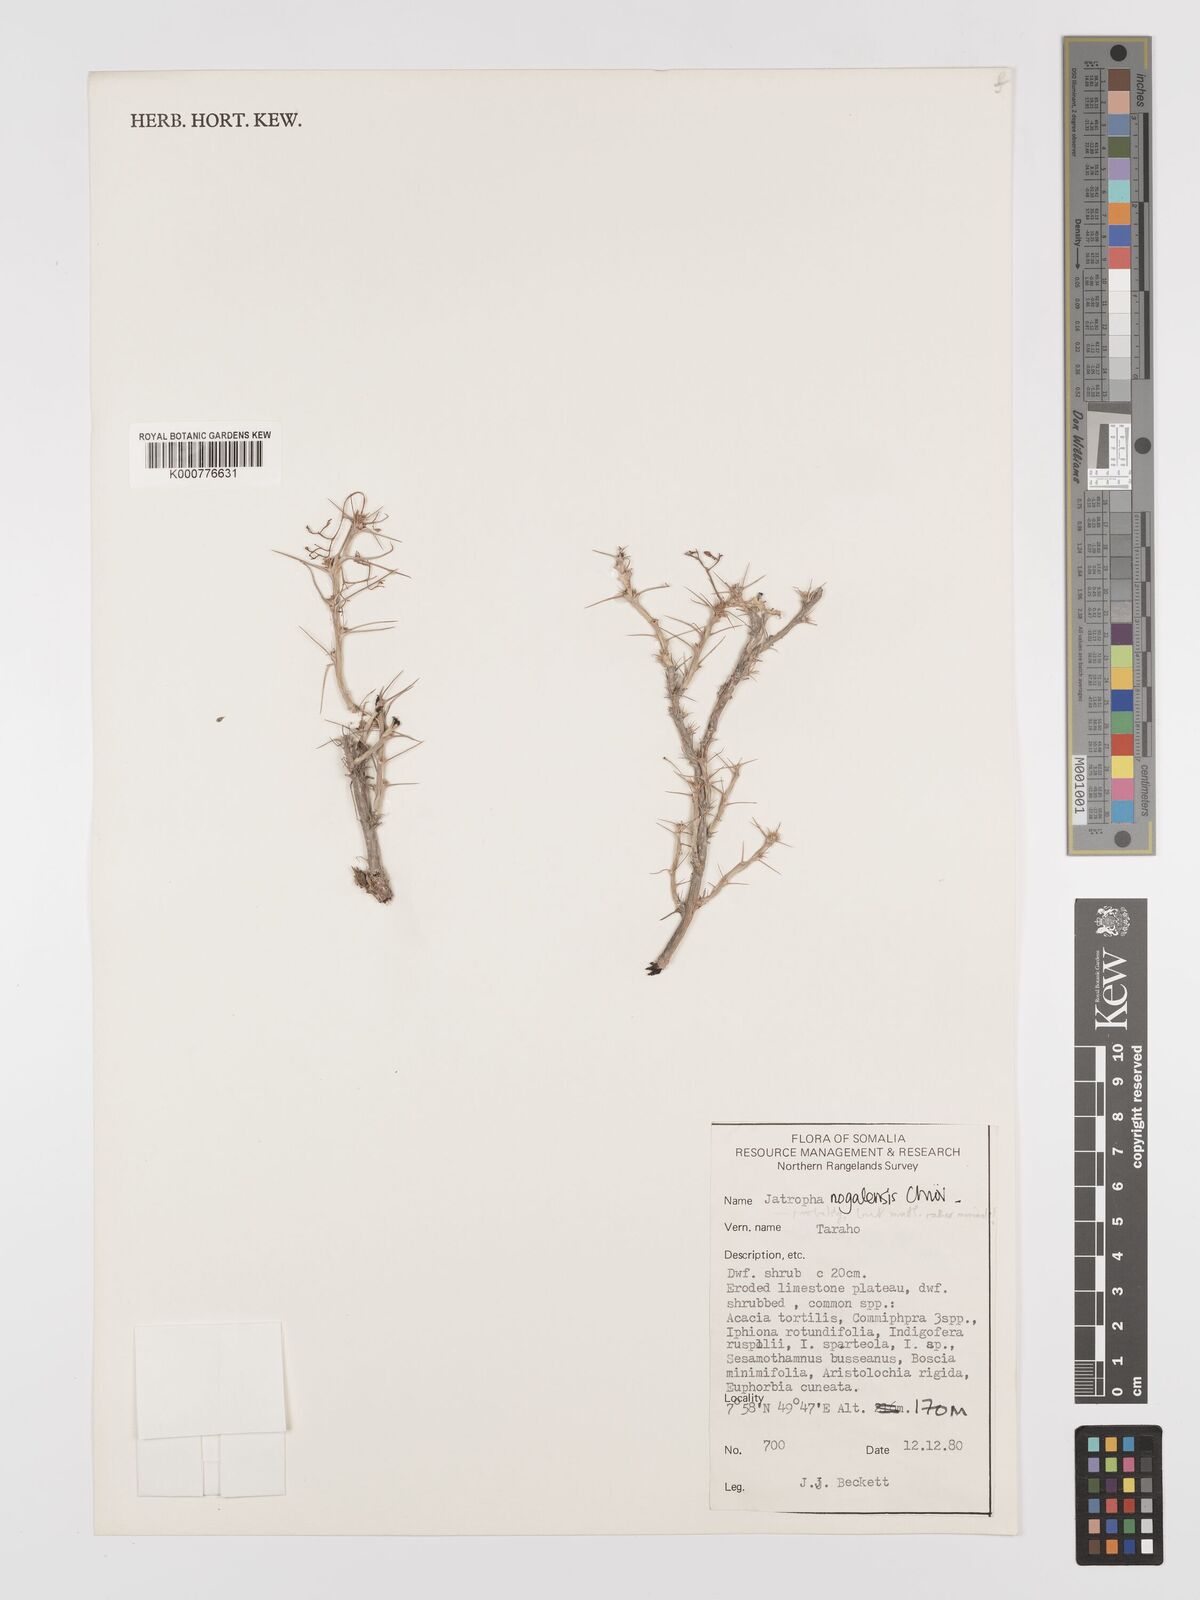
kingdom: Plantae
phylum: Tracheophyta
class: Magnoliopsida
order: Malpighiales
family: Euphorbiaceae
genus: Jatropha
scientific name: Jatropha nogalensis
